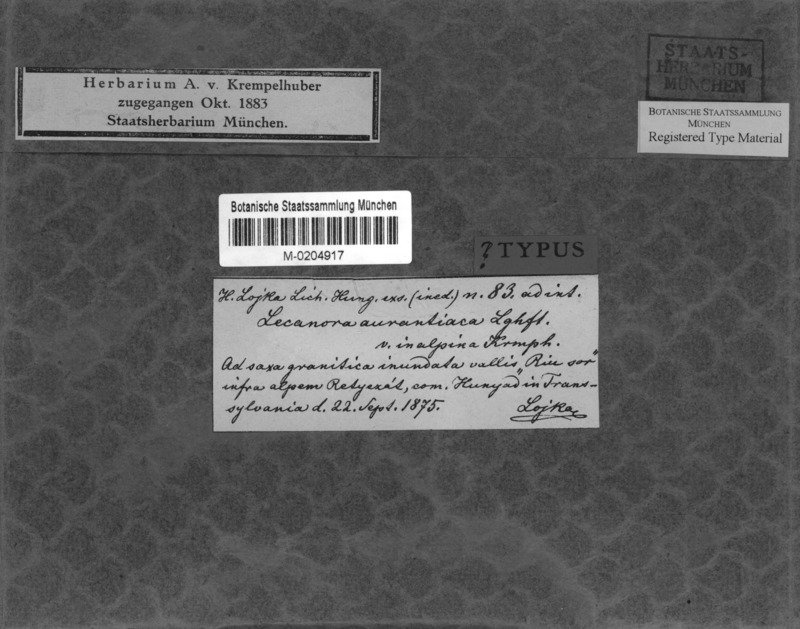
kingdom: Fungi
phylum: Ascomycota
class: Lecanoromycetes
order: Teloschistales
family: Teloschistaceae
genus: Caloplaca
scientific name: Caloplaca
